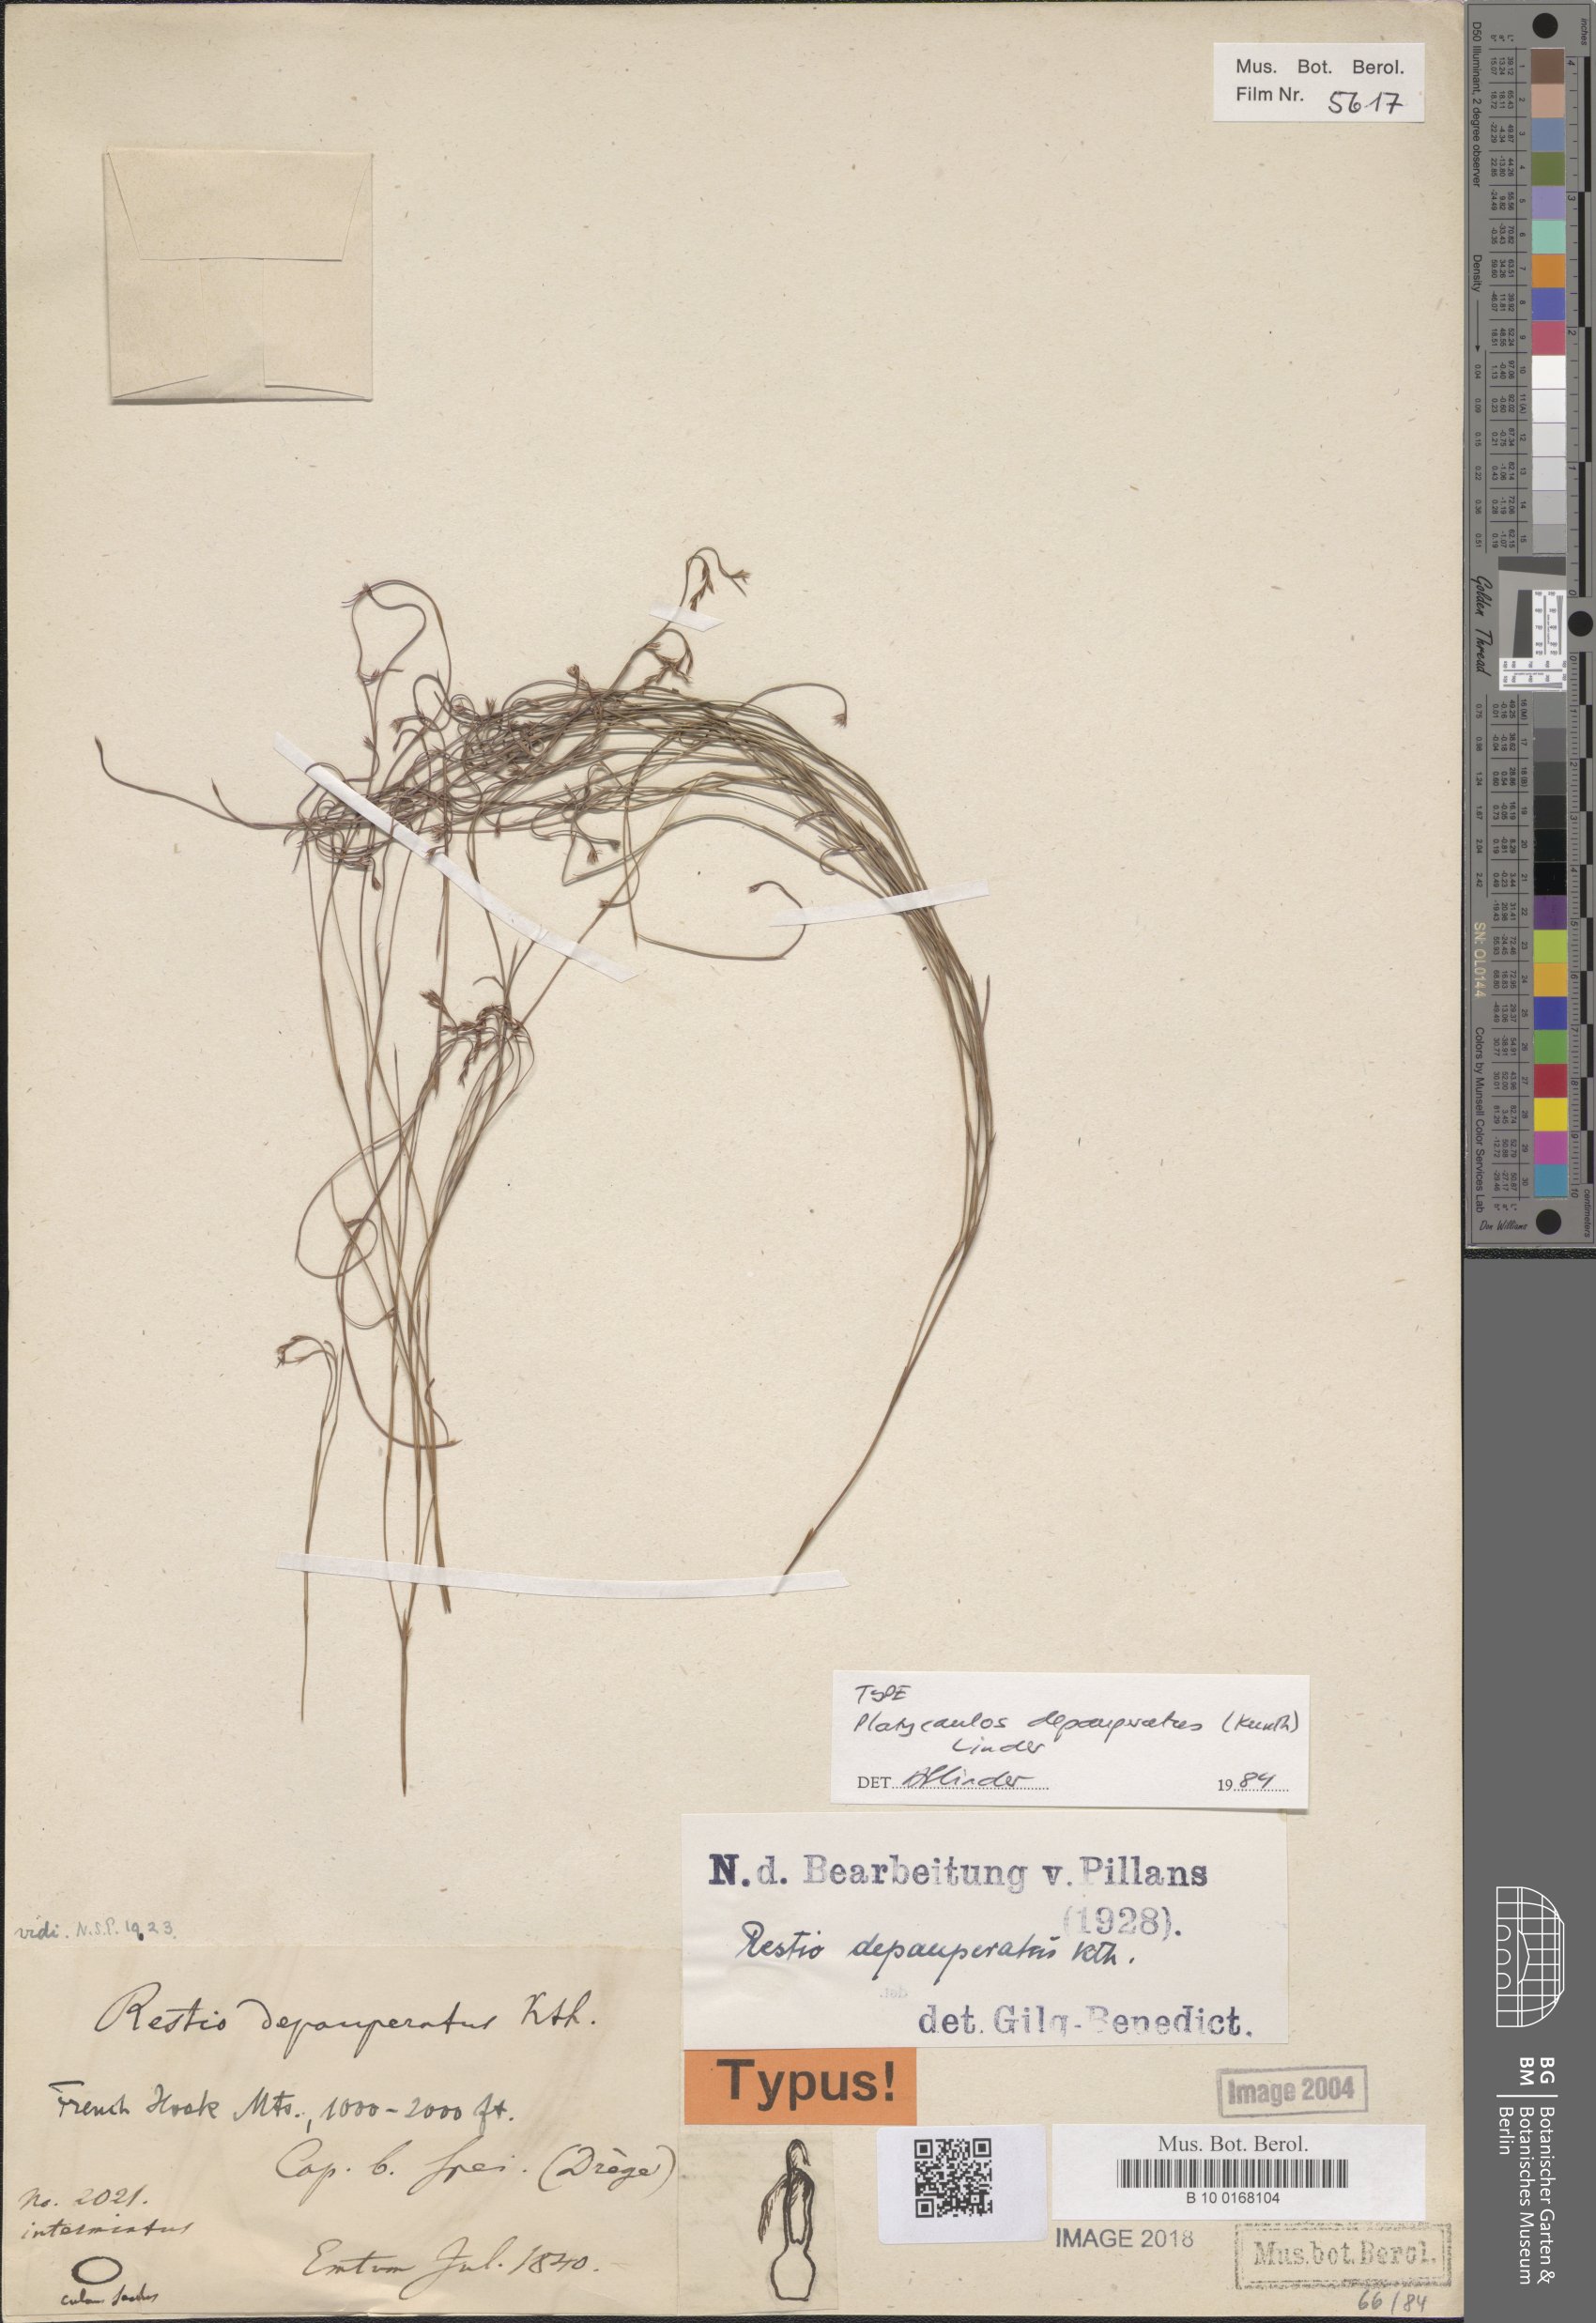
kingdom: Plantae
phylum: Tracheophyta
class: Liliopsida
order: Poales
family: Restionaceae
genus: Platycaulos
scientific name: Platycaulos depauperatus
